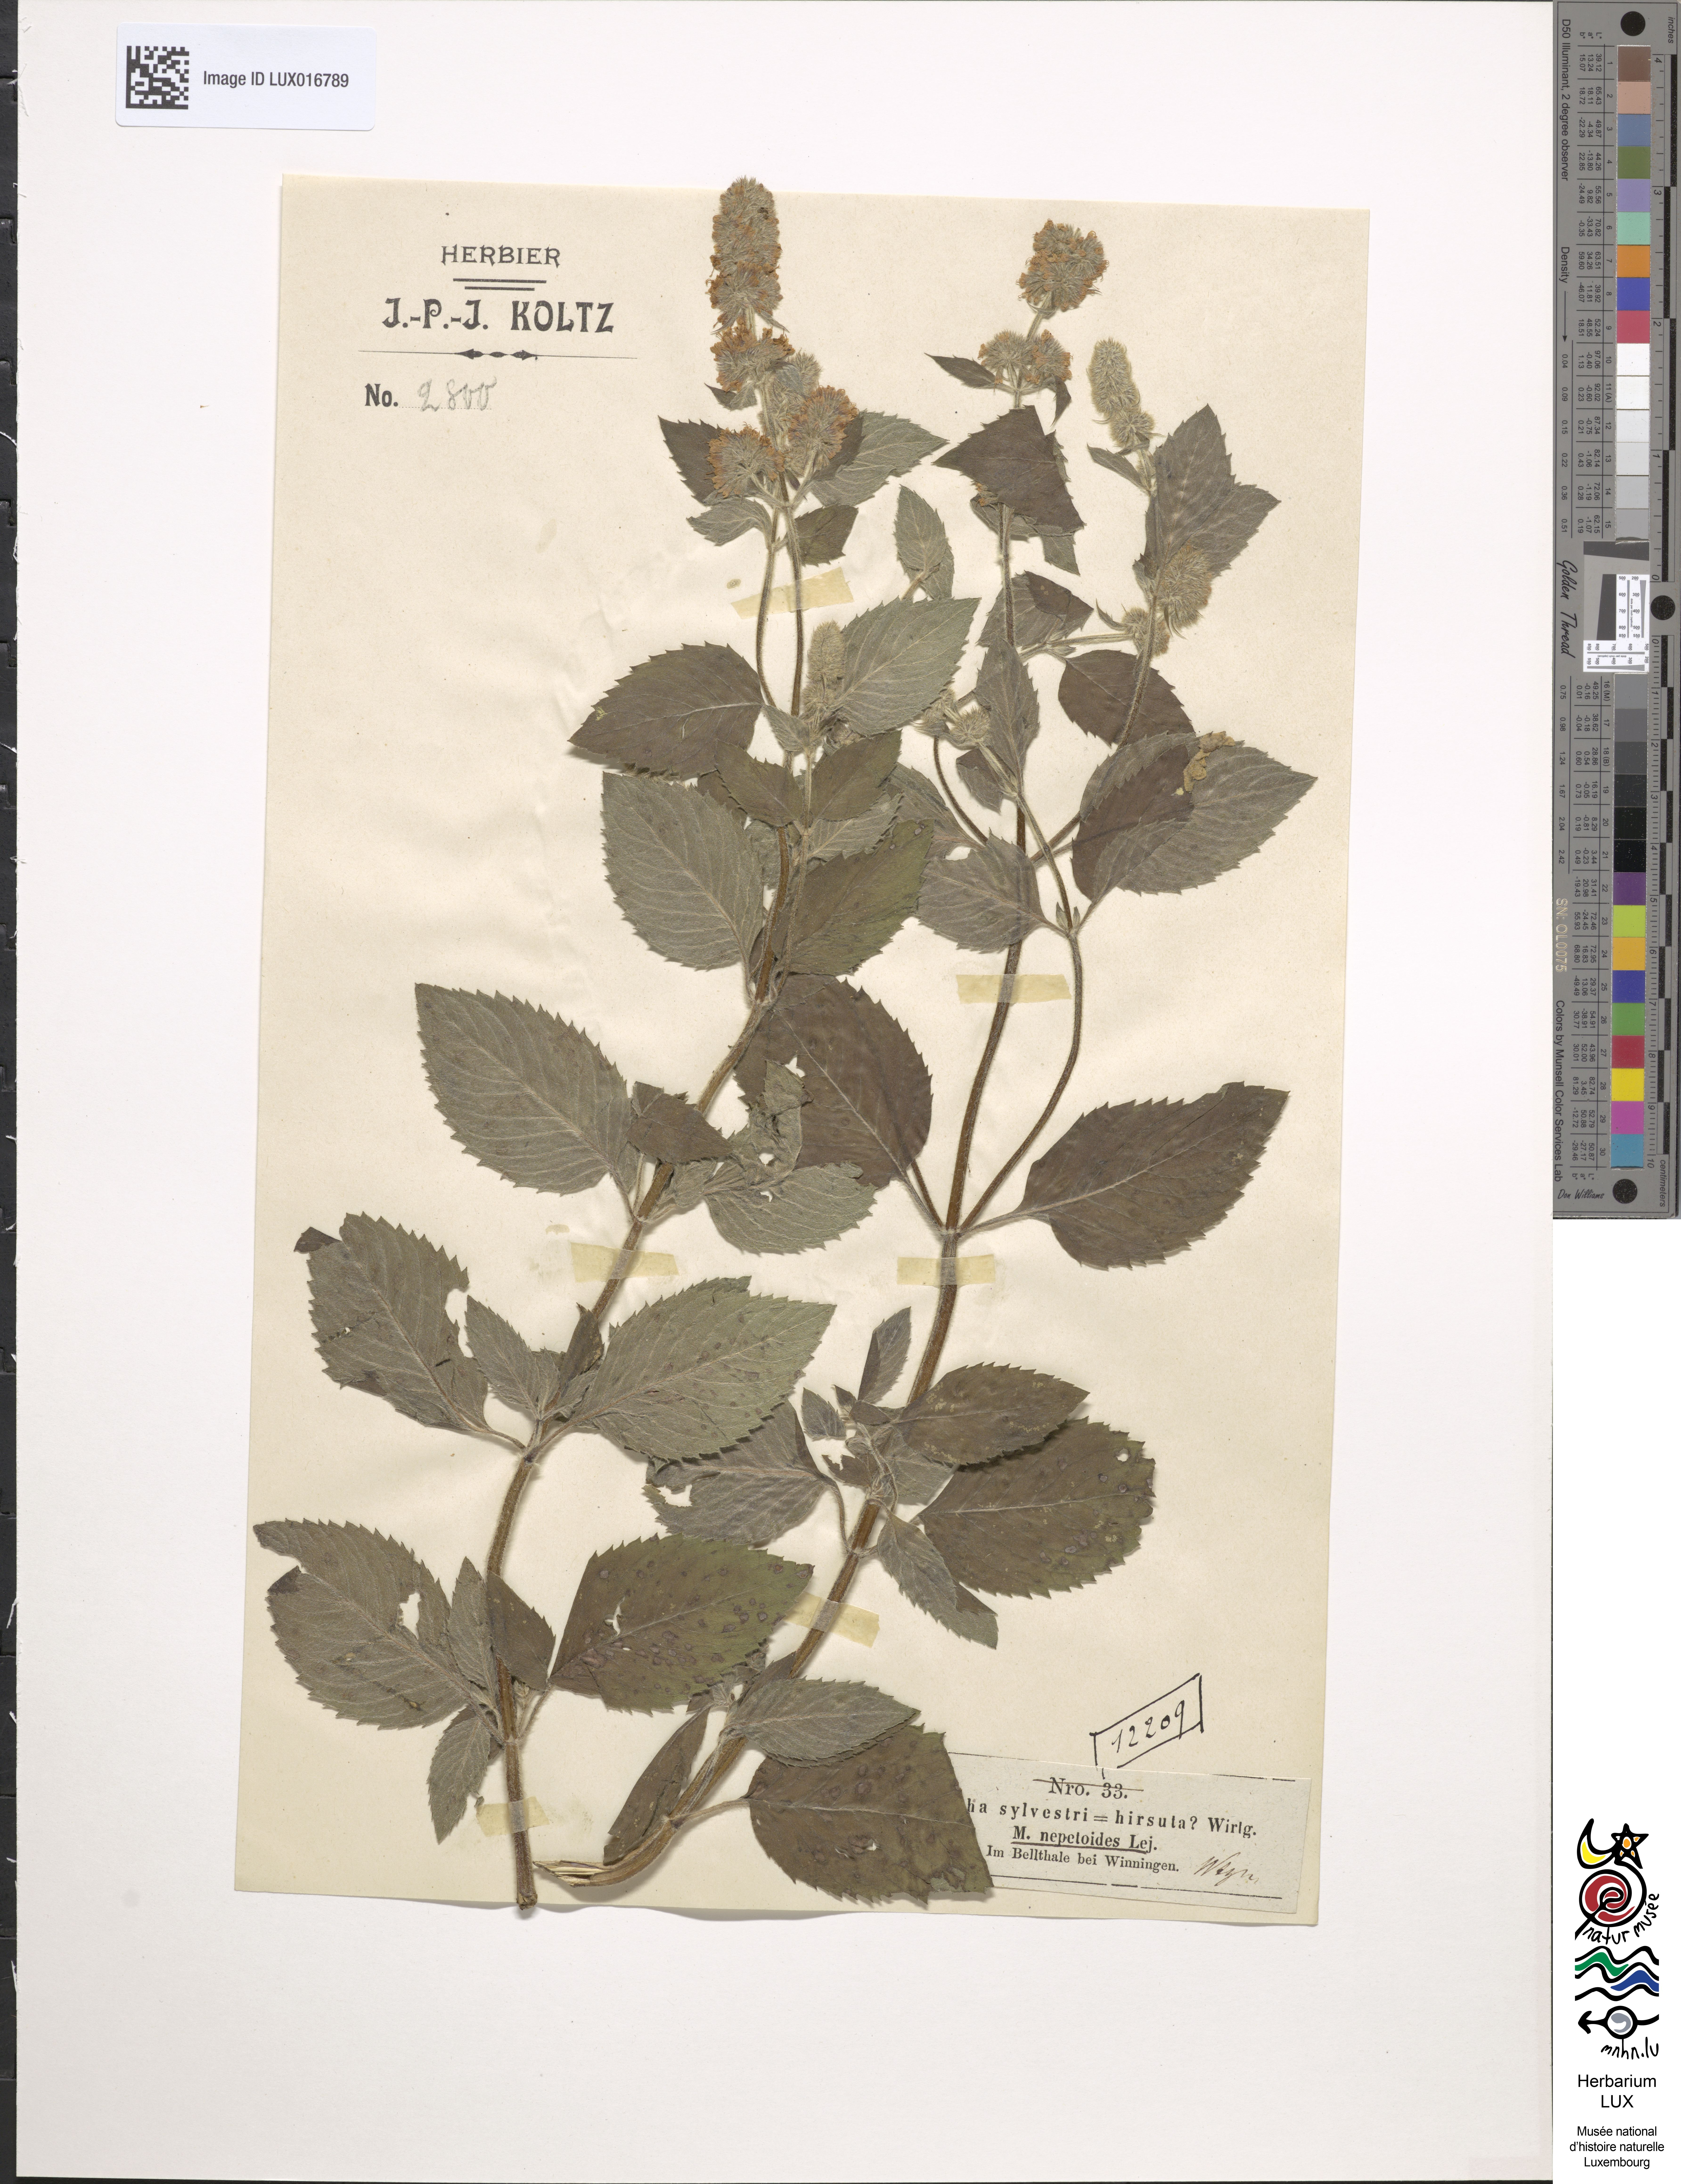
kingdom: Plantae
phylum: Tracheophyta
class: Magnoliopsida
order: Lamiales
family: Lamiaceae
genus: Mentha
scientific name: Mentha dumetorum
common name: Bush-loving mint
